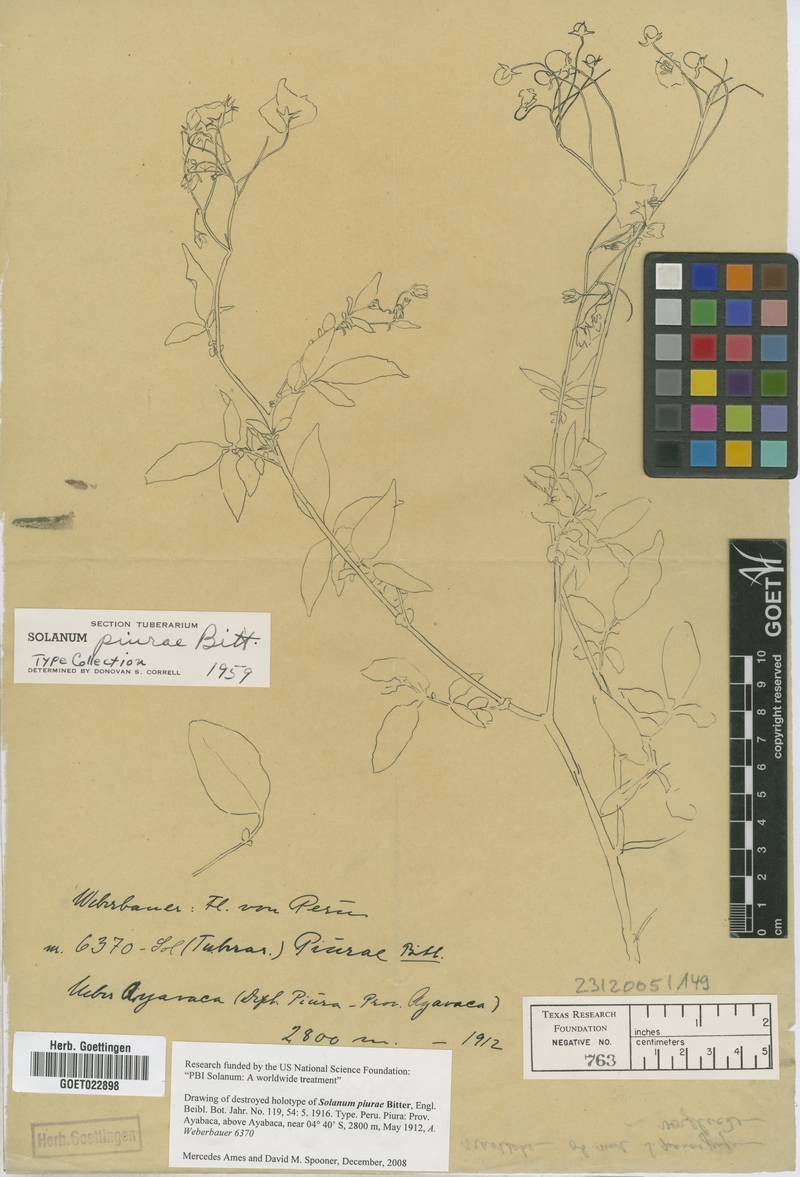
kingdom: Plantae
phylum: Tracheophyta
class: Magnoliopsida
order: Solanales
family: Solanaceae
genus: Solanum
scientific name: Solanum piurae
